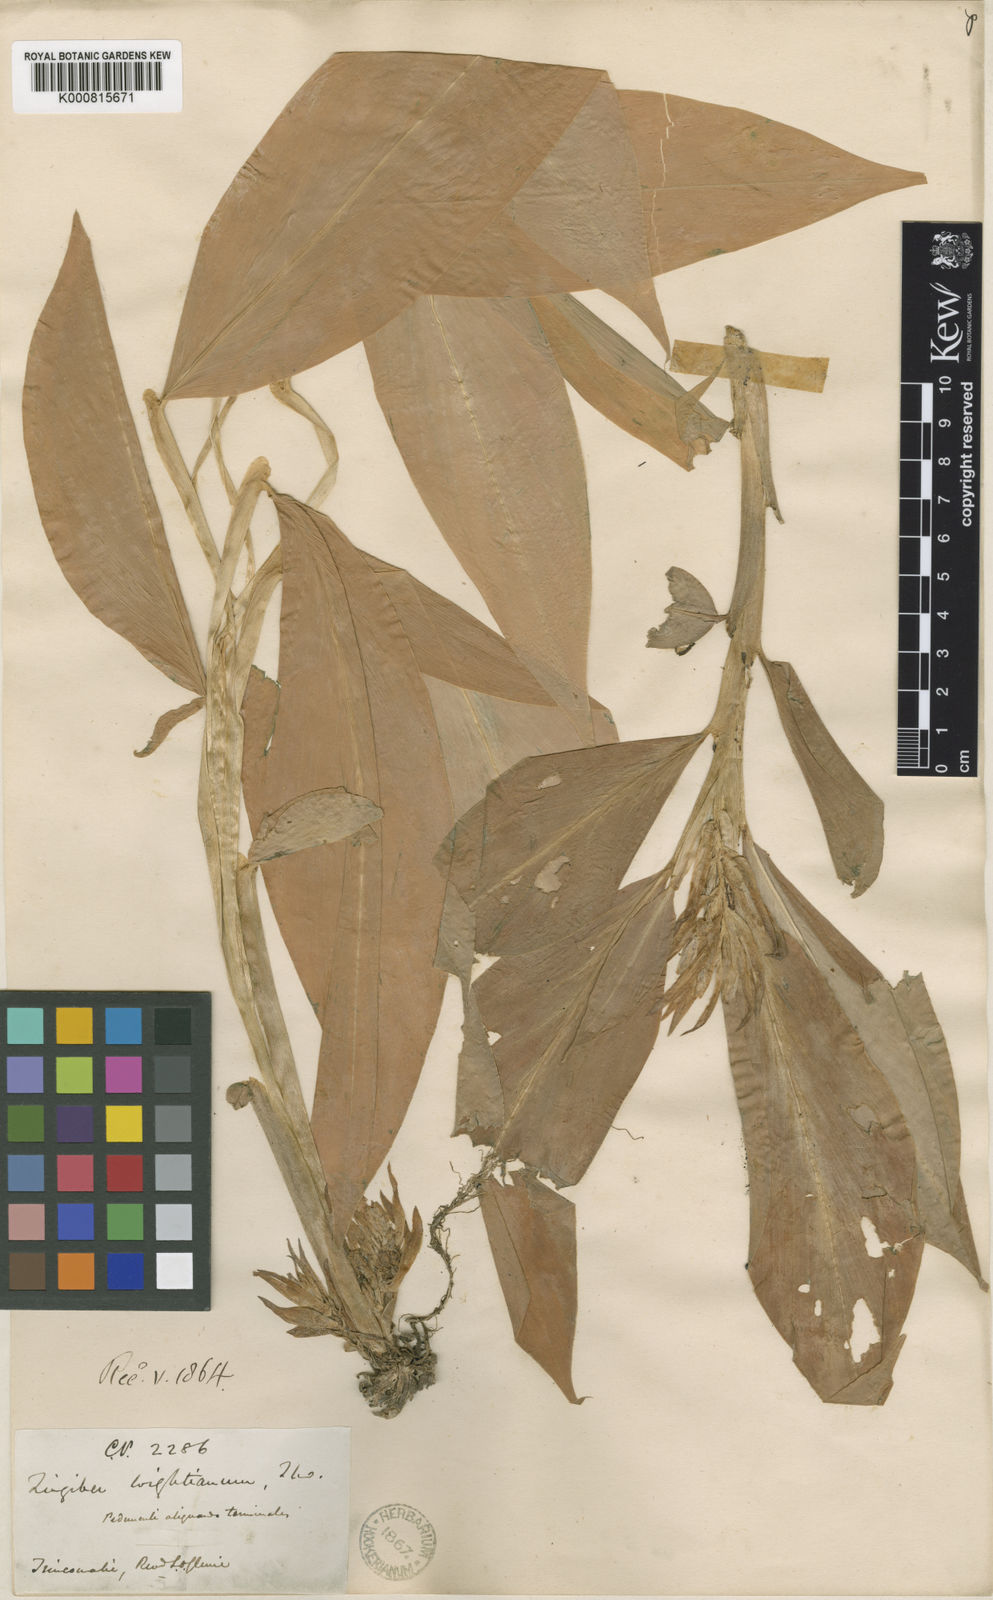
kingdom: Plantae
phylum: Tracheophyta
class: Liliopsida
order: Zingiberales
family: Zingiberaceae
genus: Zingiber
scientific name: Zingiber wightianum
